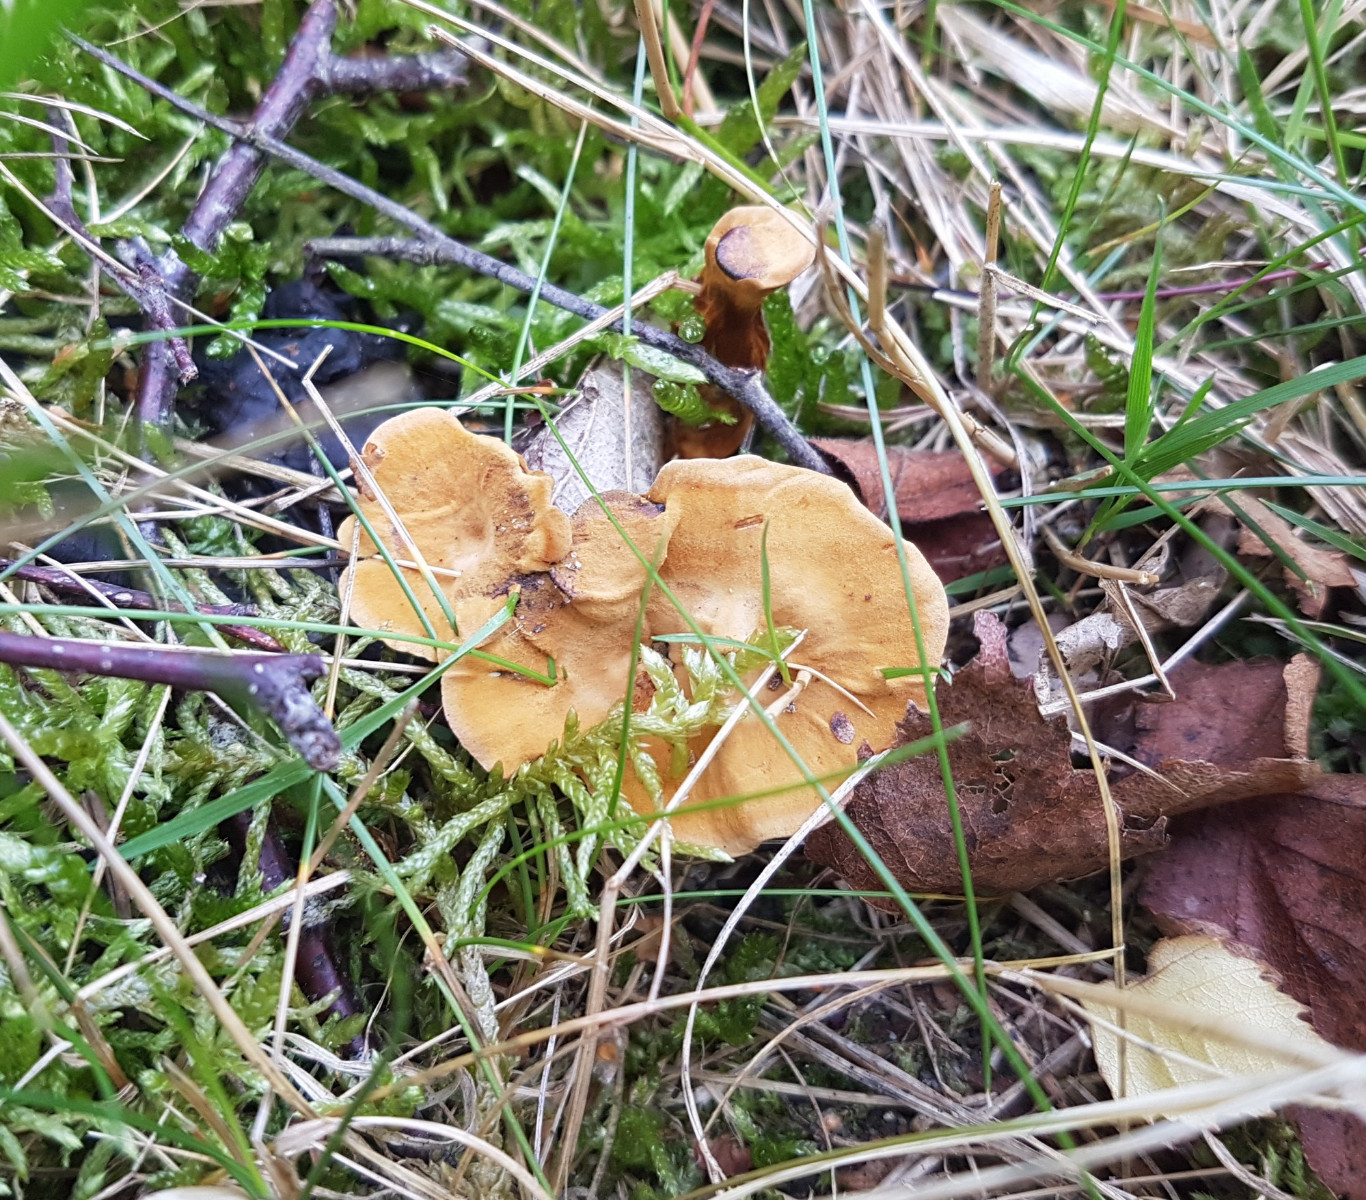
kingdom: Fungi
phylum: Basidiomycota
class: Agaricomycetes
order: Hymenochaetales
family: Hymenochaetaceae
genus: Coltricia
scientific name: Coltricia perennis
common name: almindelig sandporesvamp
